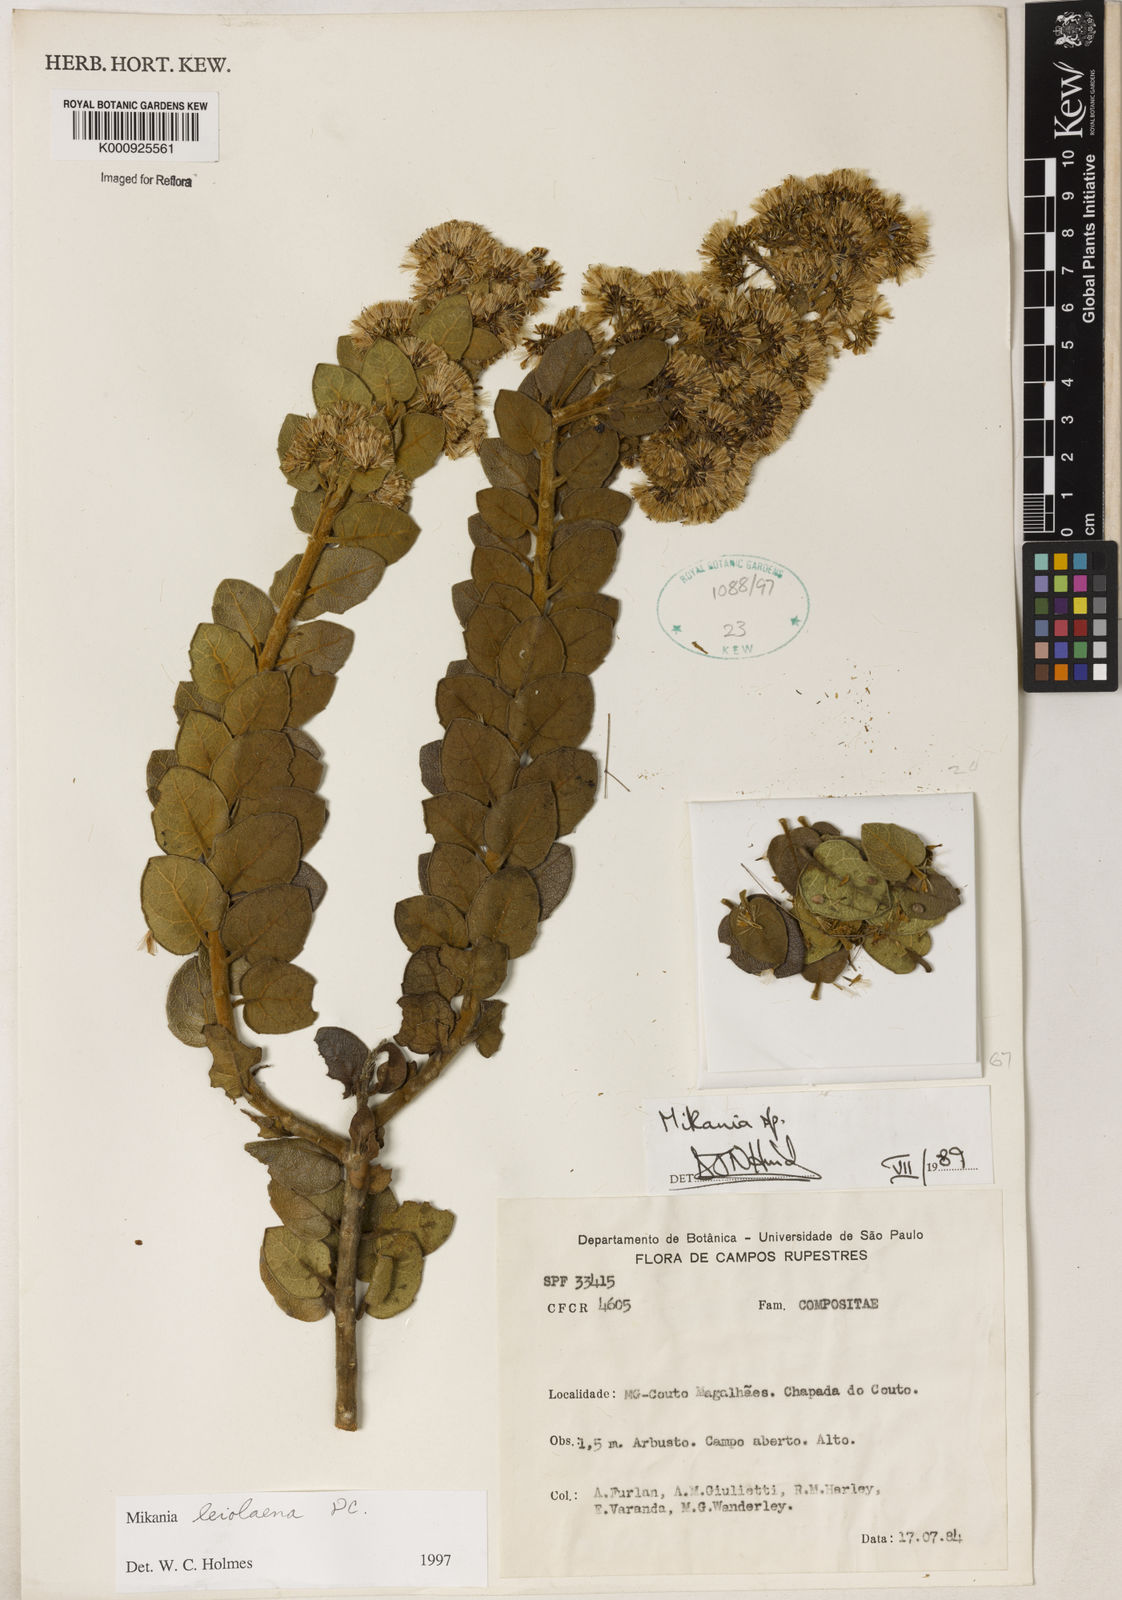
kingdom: Plantae
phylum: Tracheophyta
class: Magnoliopsida
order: Asterales
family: Asteraceae
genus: Mikania
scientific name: Mikania leiolaena
